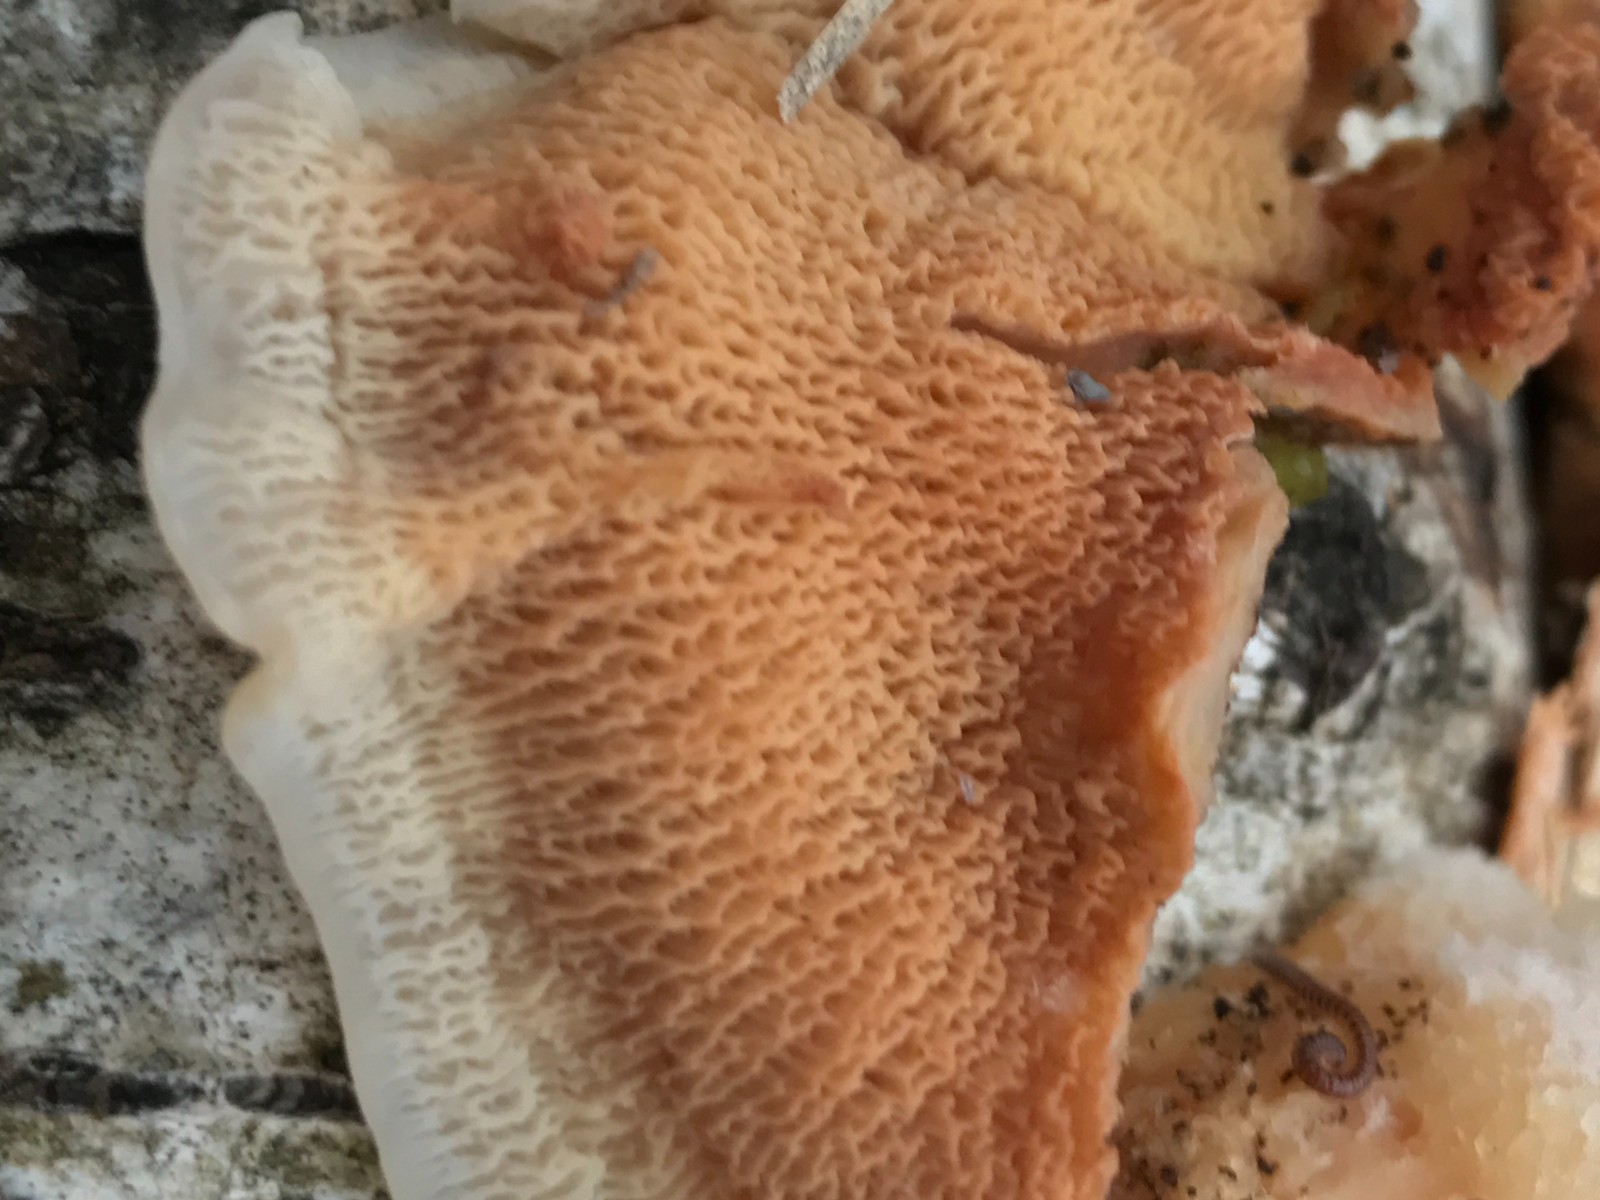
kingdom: Fungi
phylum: Basidiomycota
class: Agaricomycetes
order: Polyporales
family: Meruliaceae
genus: Phlebia
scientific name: Phlebia tremellosa
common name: bævrende åresvamp
